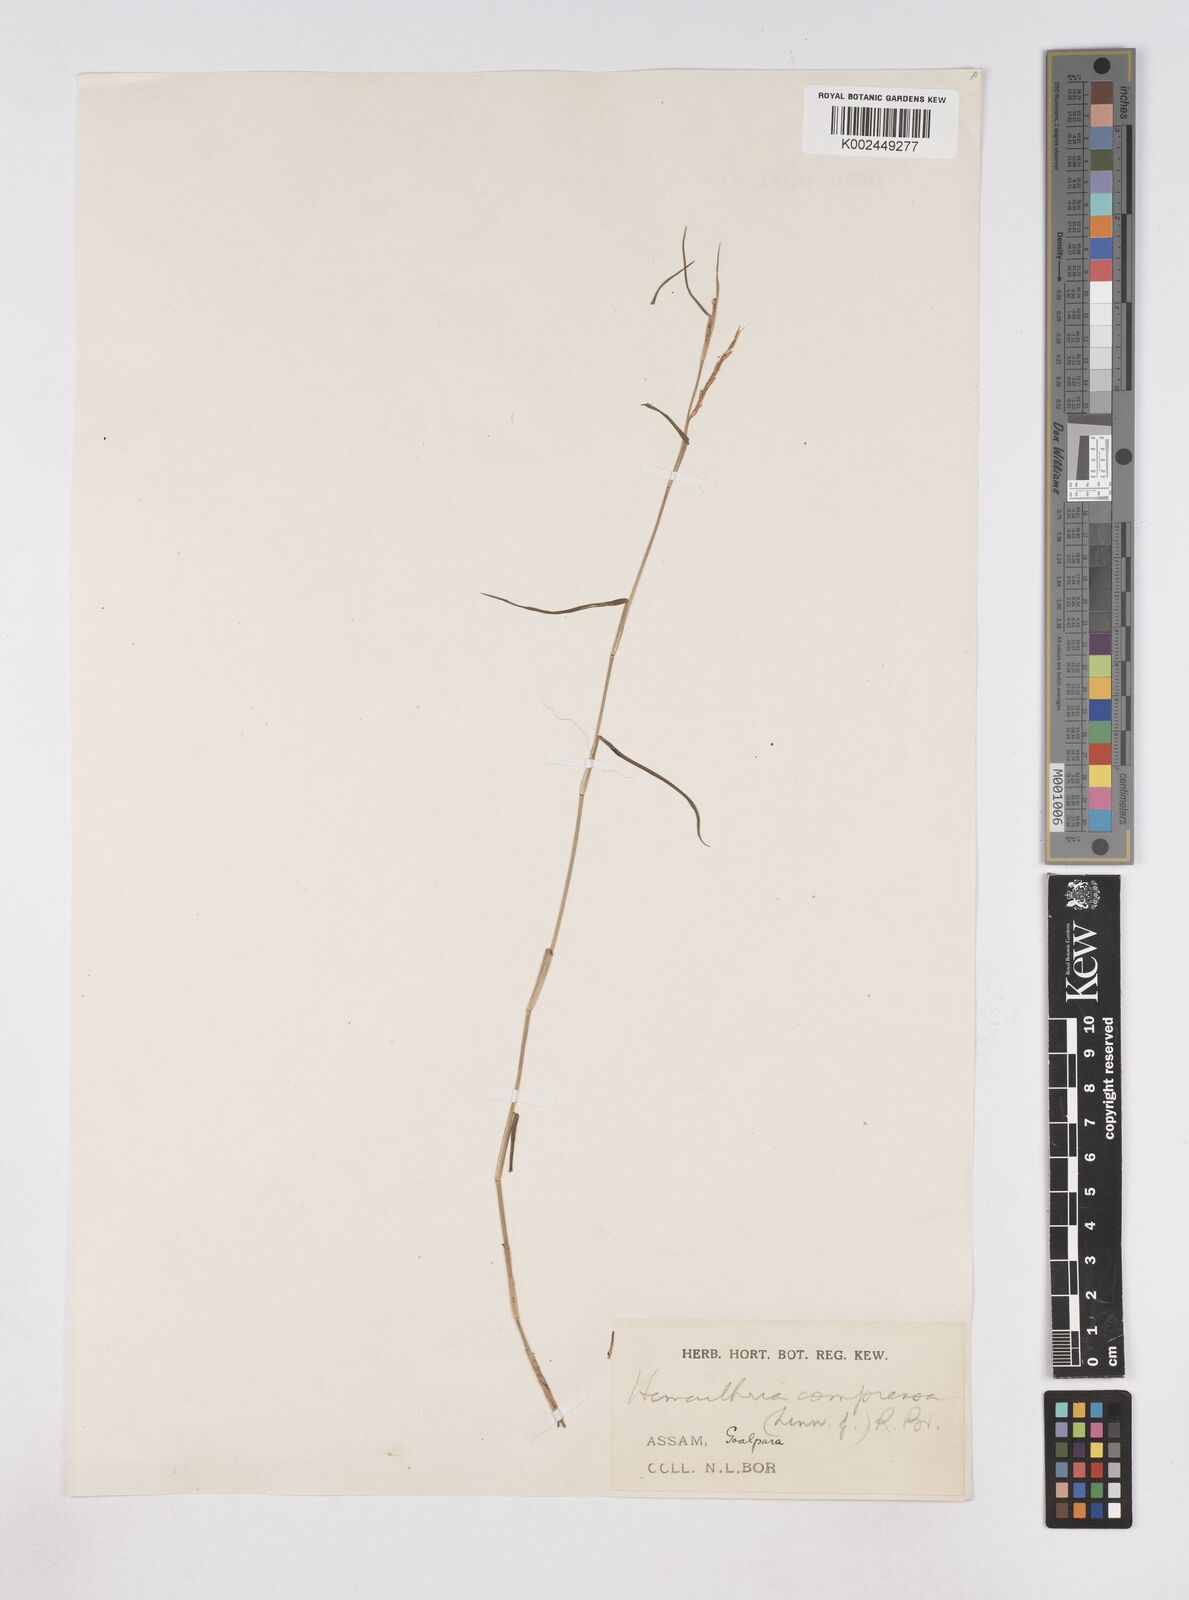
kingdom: Plantae
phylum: Tracheophyta
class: Liliopsida
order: Poales
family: Poaceae
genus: Hemarthria
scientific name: Hemarthria compressa
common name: Whip grass
